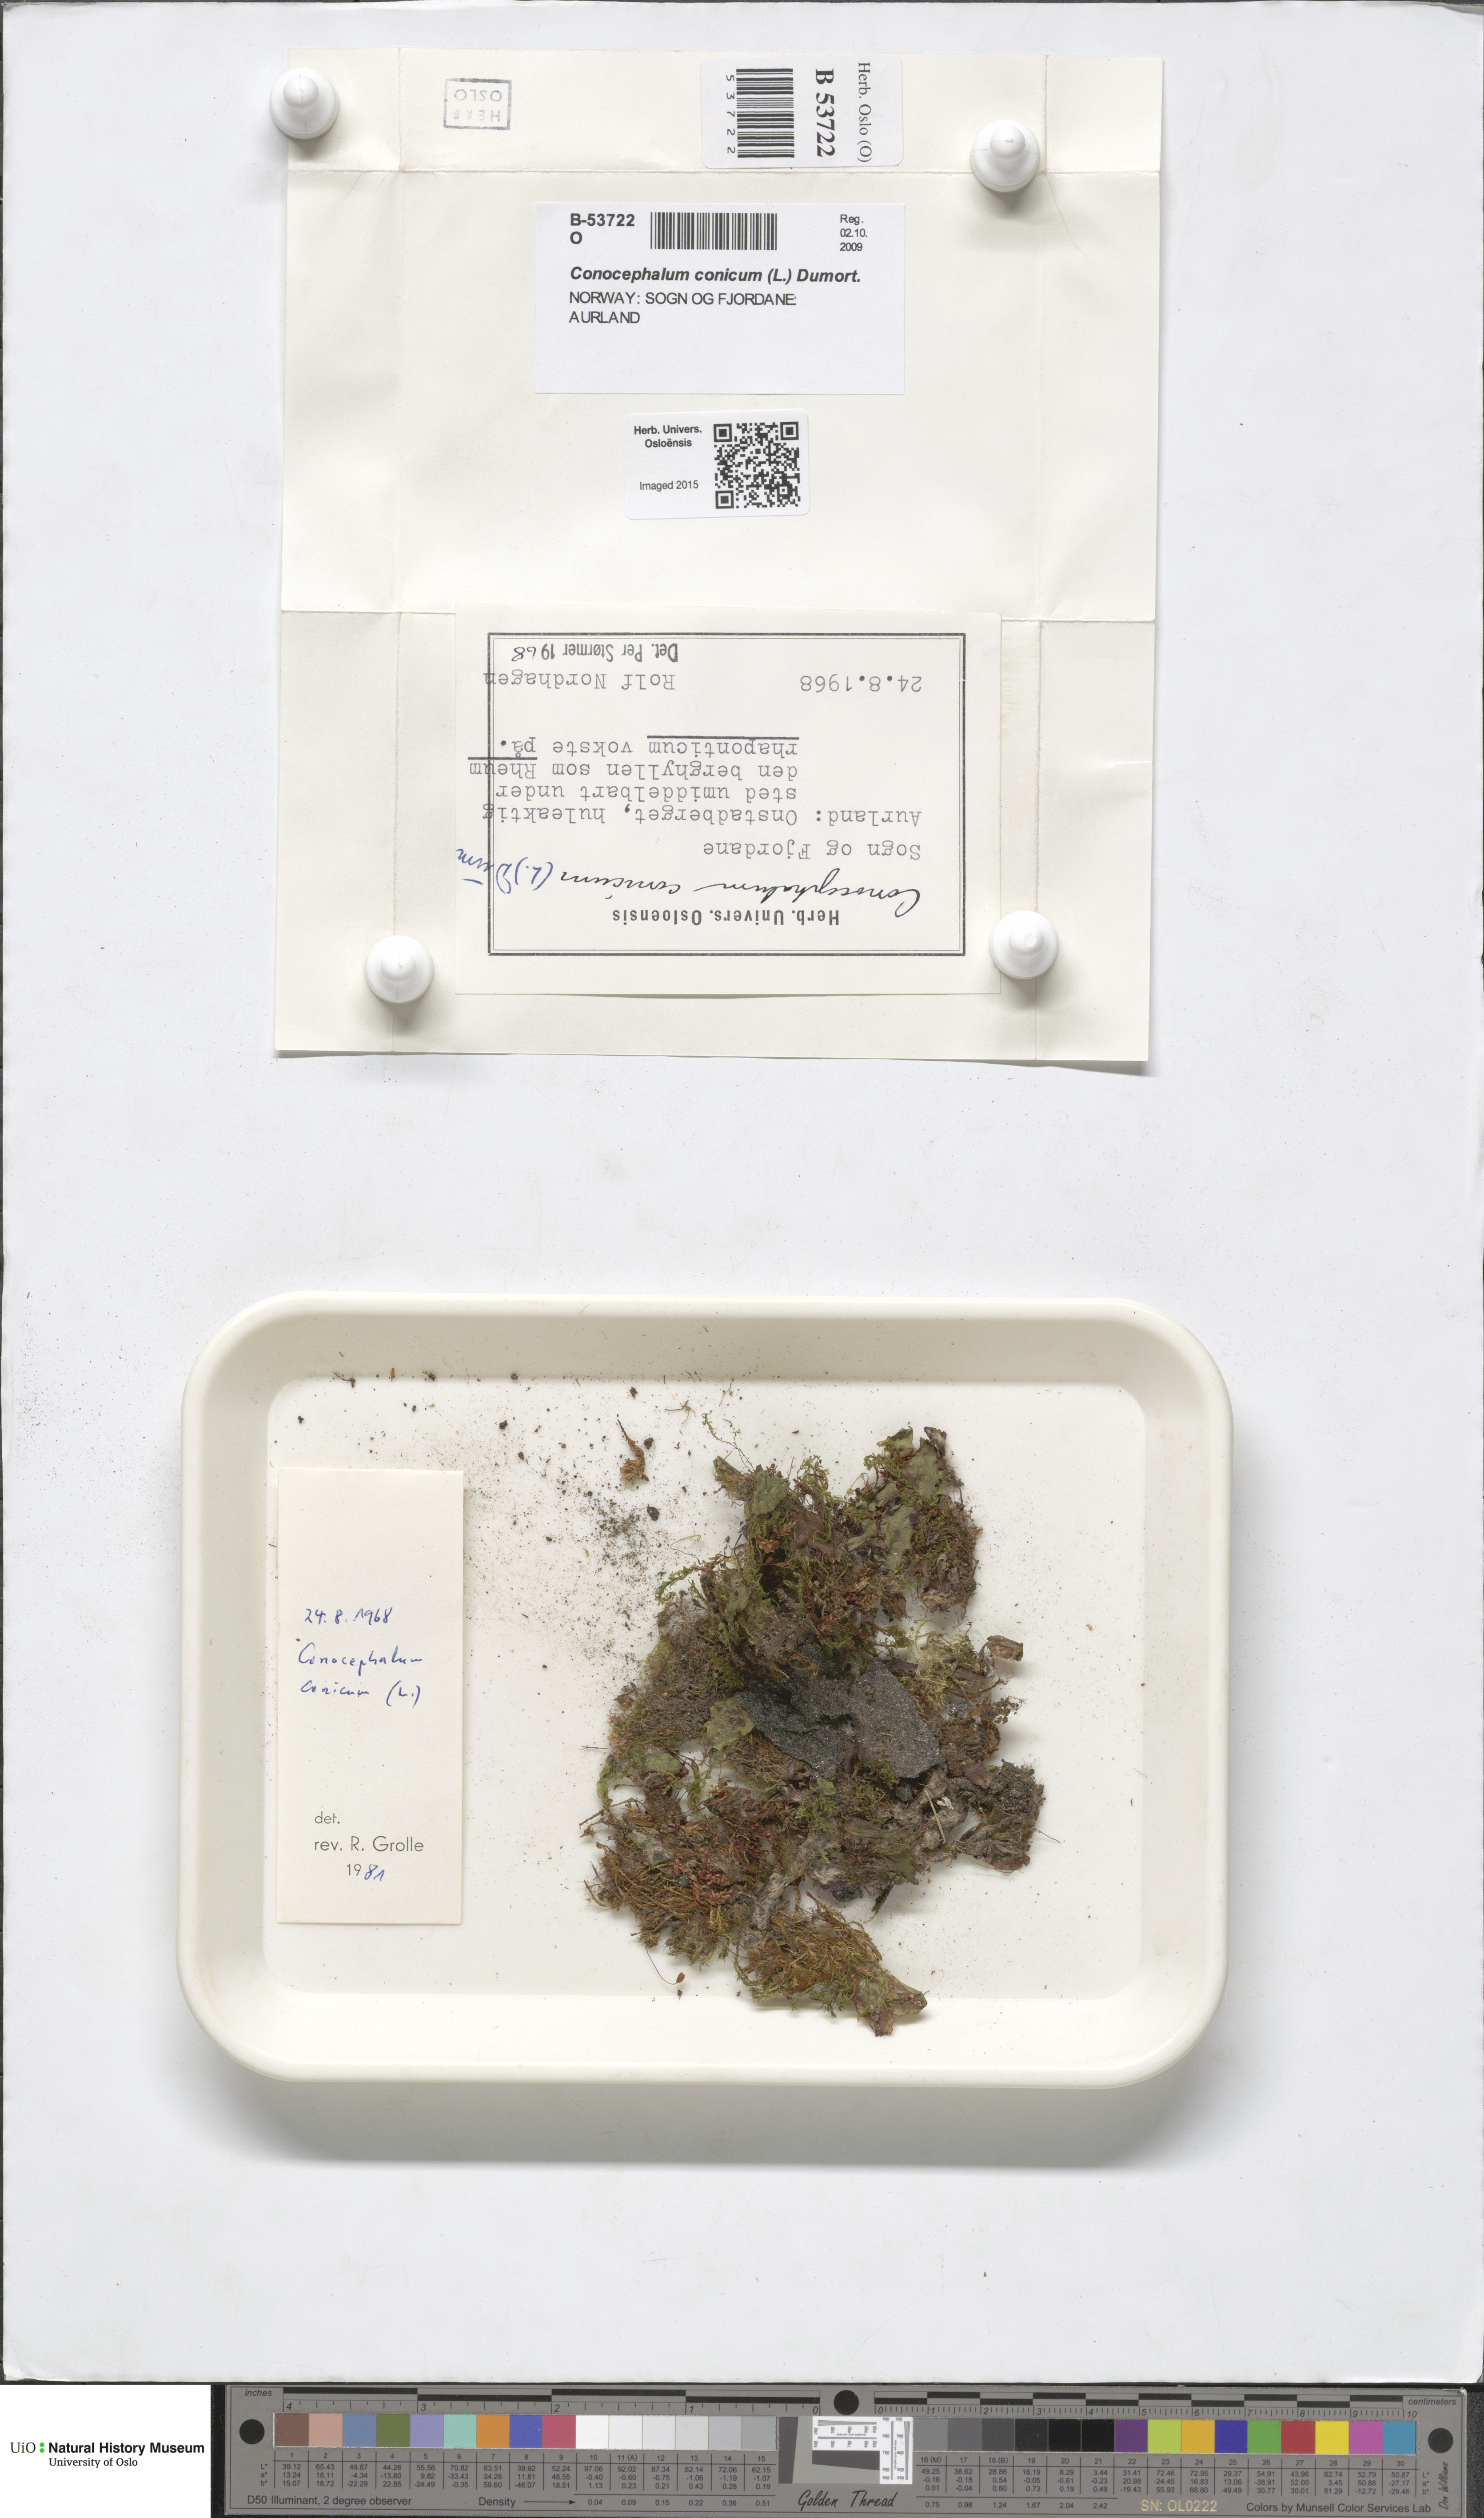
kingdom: Plantae
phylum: Marchantiophyta
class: Marchantiopsida
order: Marchantiales
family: Conocephalaceae
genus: Conocephalum
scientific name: Conocephalum conicum
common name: Great scented liverwort
